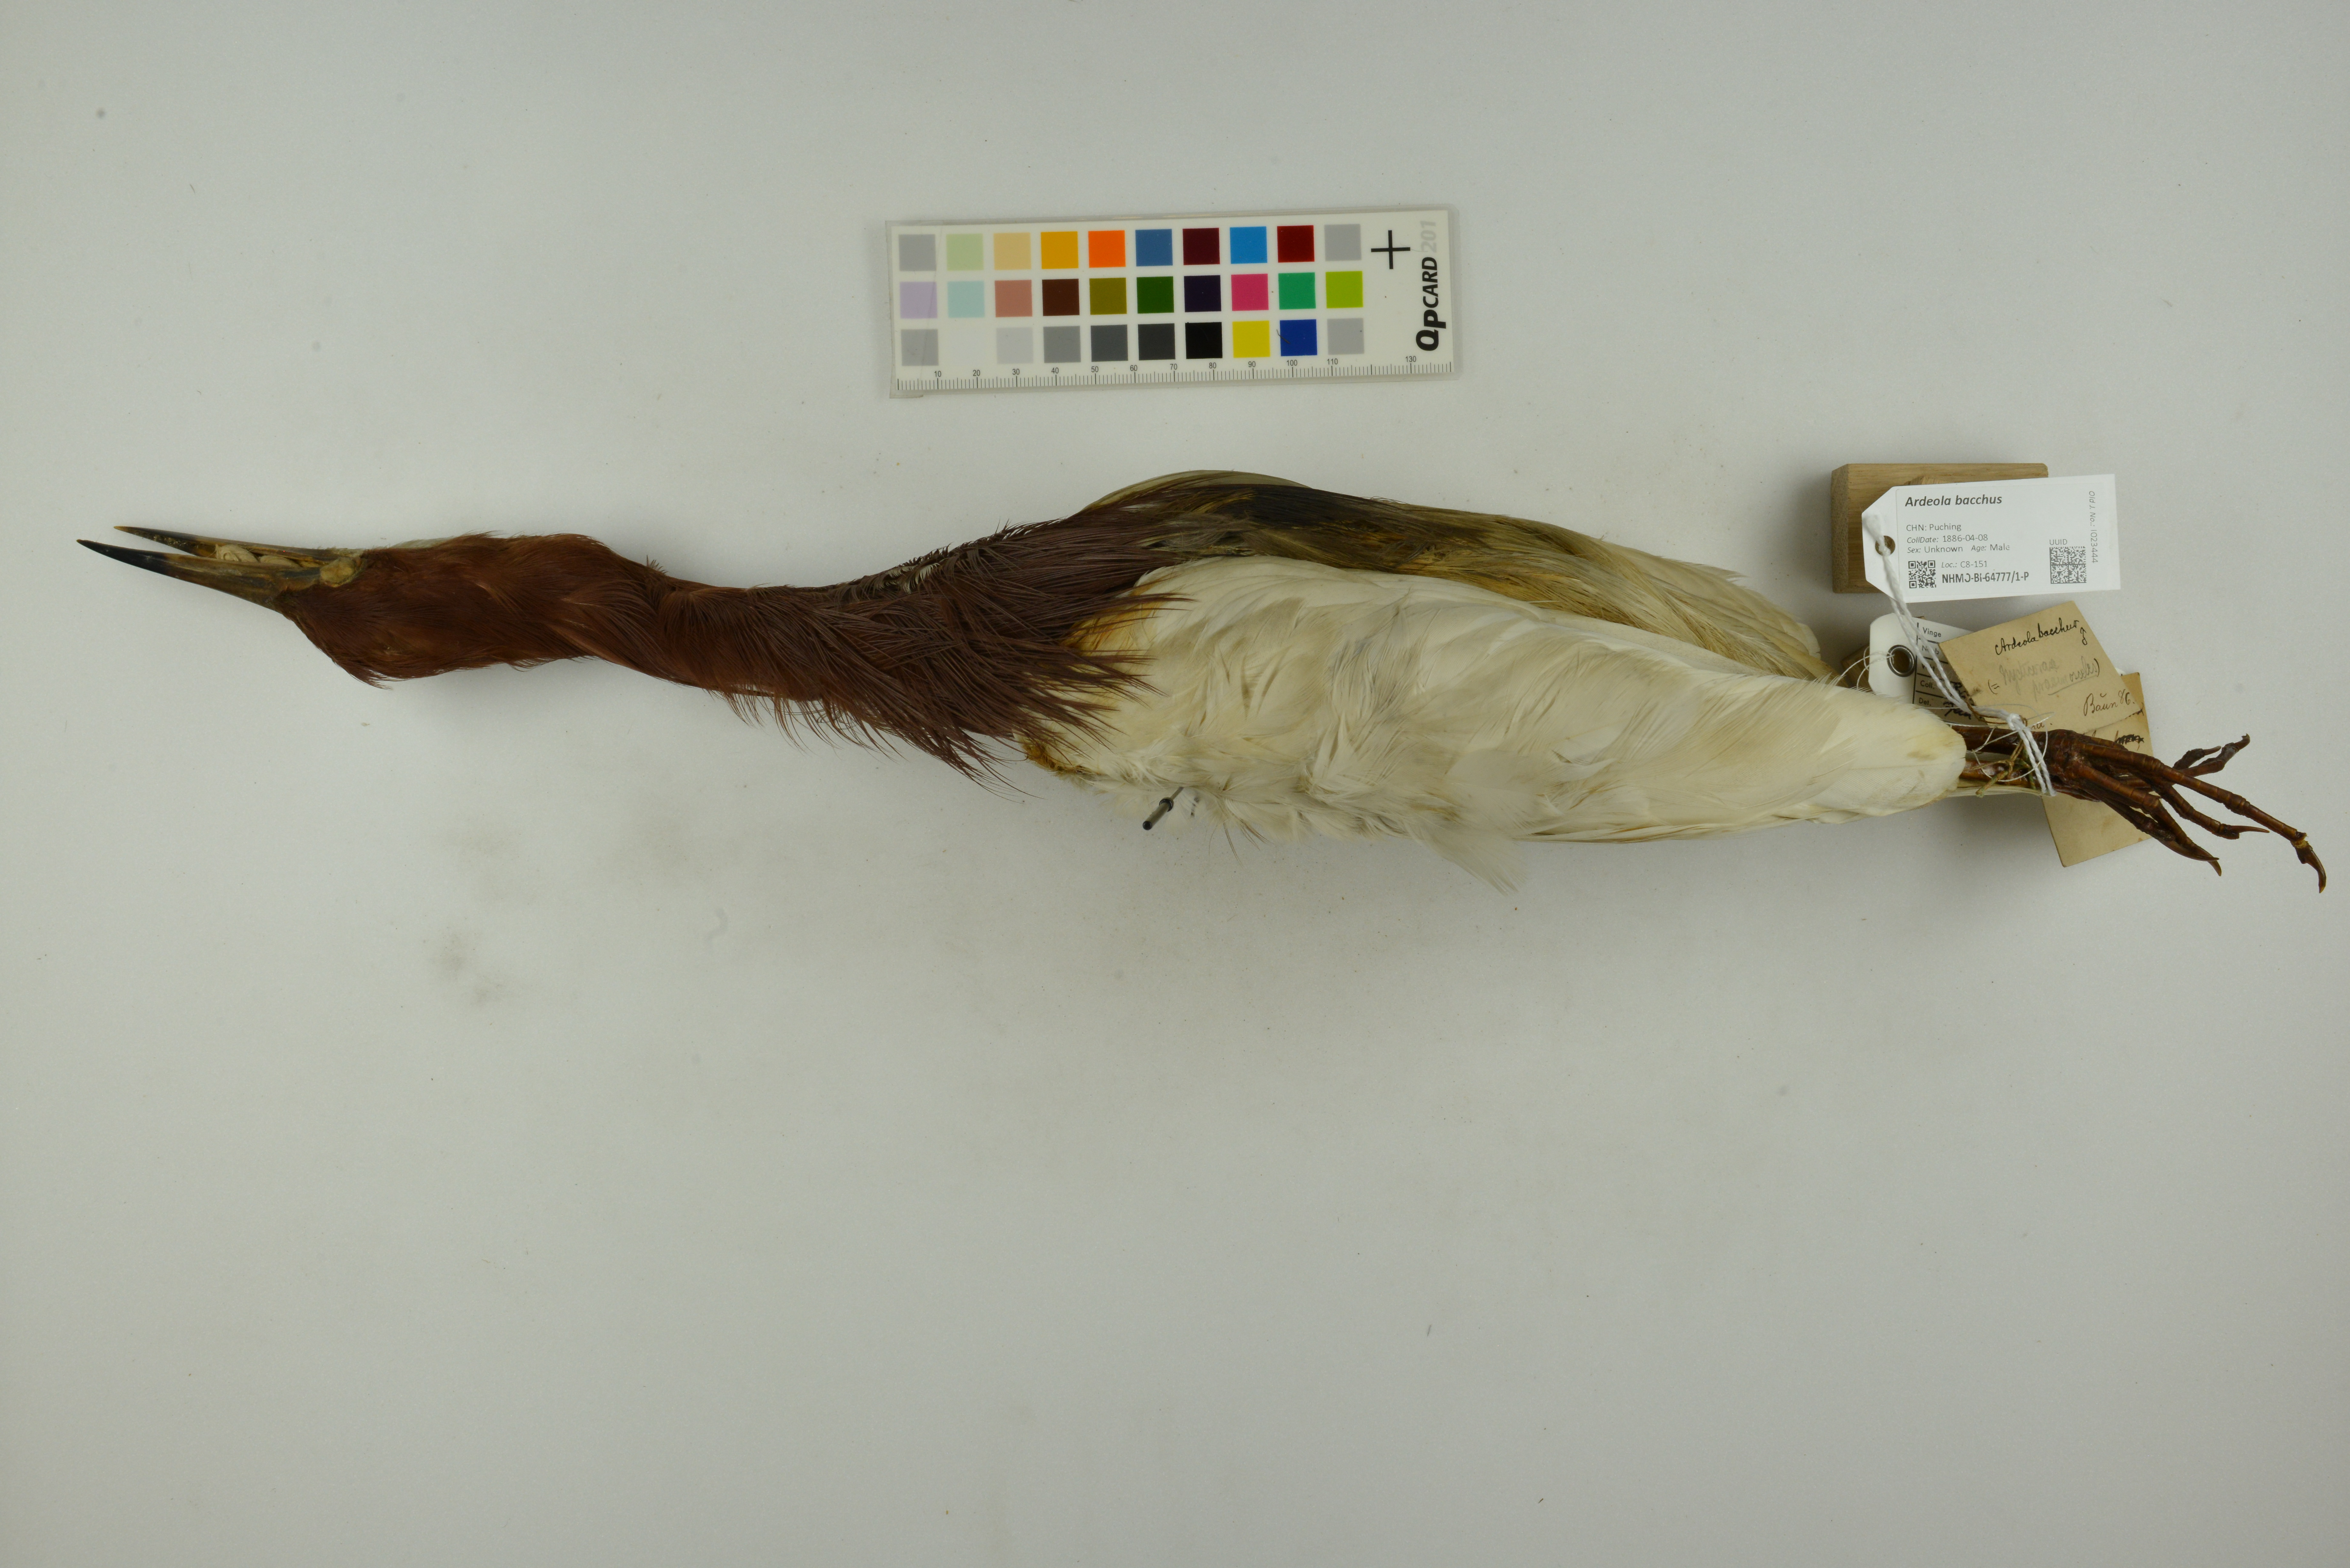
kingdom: Animalia
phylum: Chordata
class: Aves
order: Pelecaniformes
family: Ardeidae
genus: Ardeola
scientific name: Ardeola bacchus
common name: Chinese pond heron
